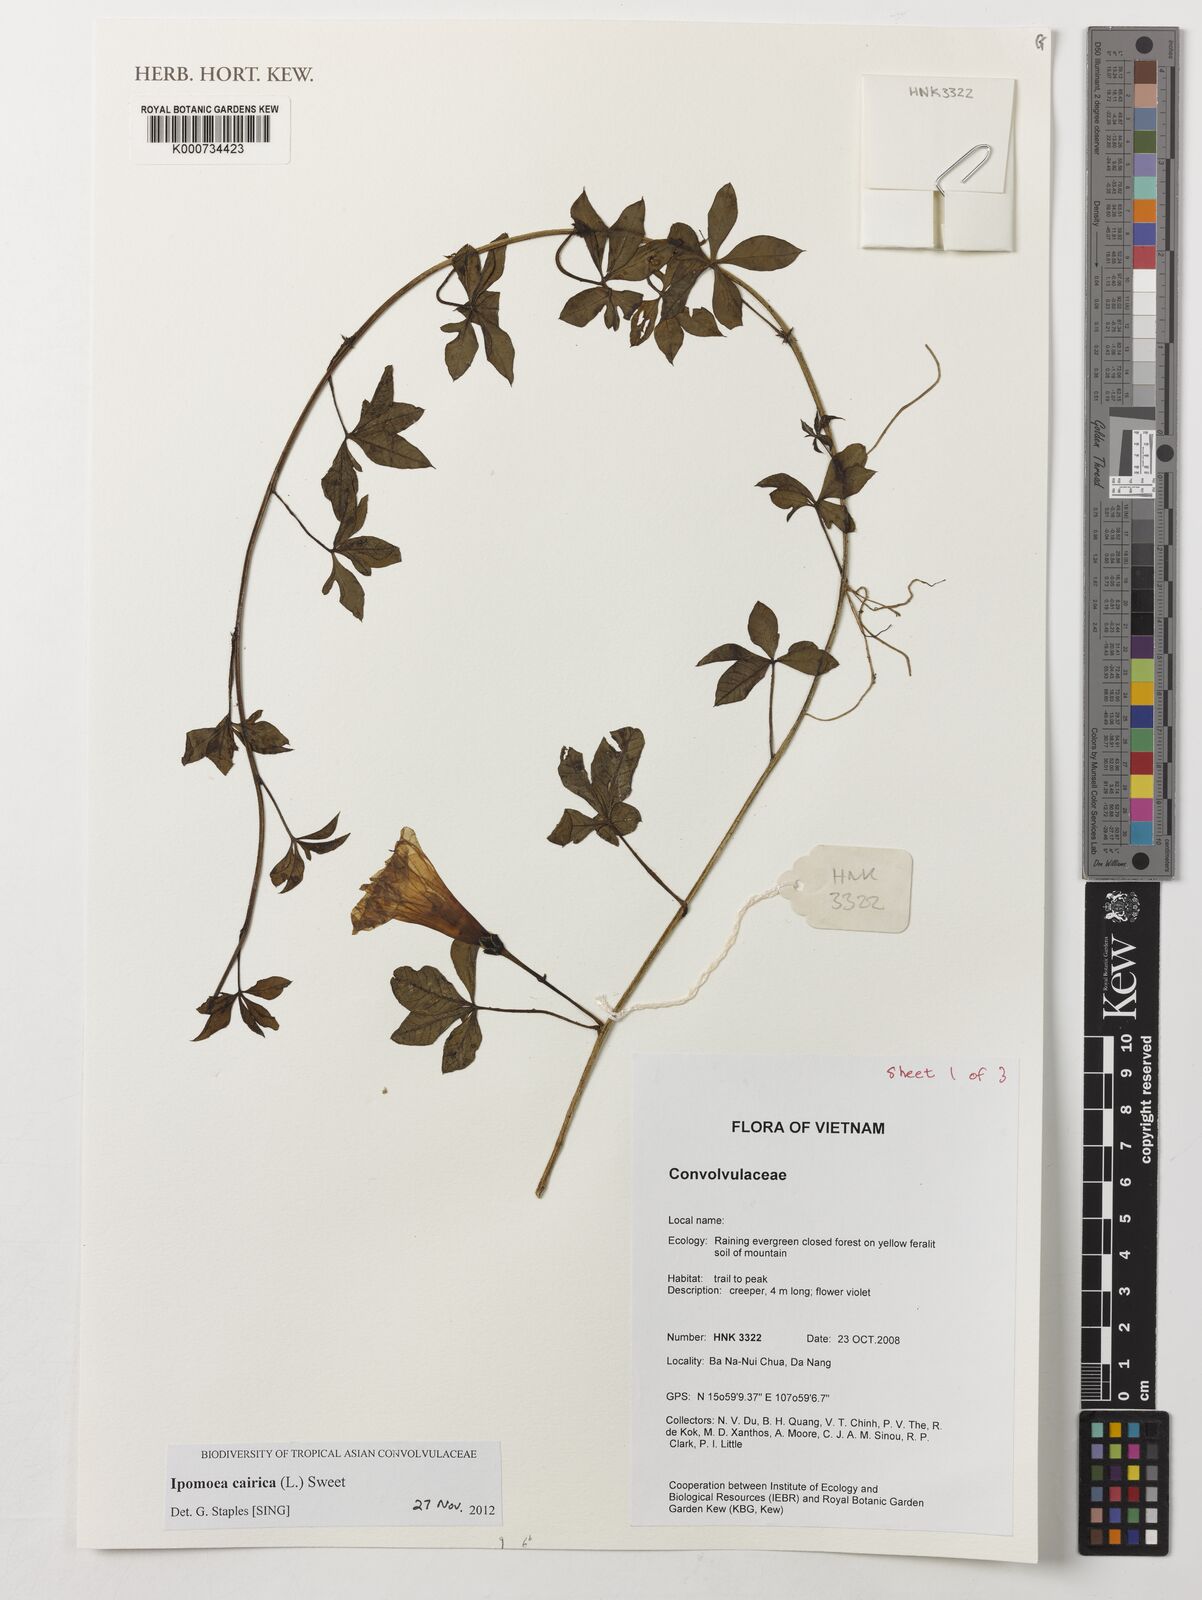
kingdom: Plantae
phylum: Tracheophyta
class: Magnoliopsida
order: Solanales
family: Convolvulaceae
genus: Ipomoea
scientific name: Ipomoea cairica
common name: Mile a minute vine
